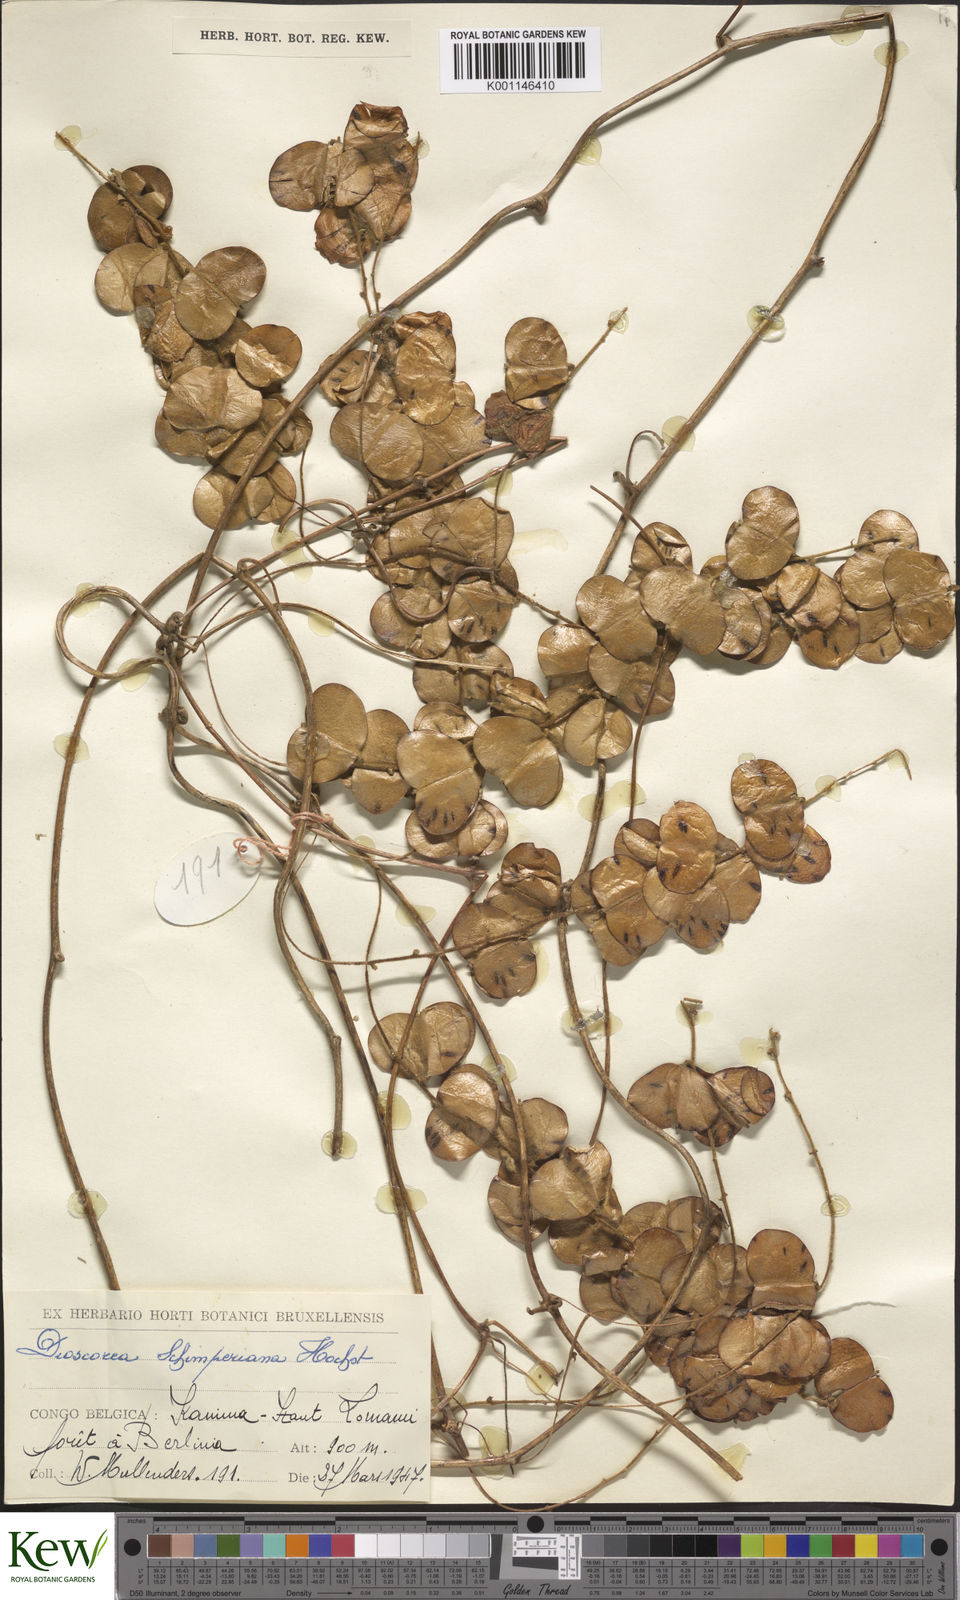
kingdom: Plantae
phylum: Tracheophyta
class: Liliopsida
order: Dioscoreales
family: Dioscoreaceae
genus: Dioscorea
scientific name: Dioscorea hirtiflora
